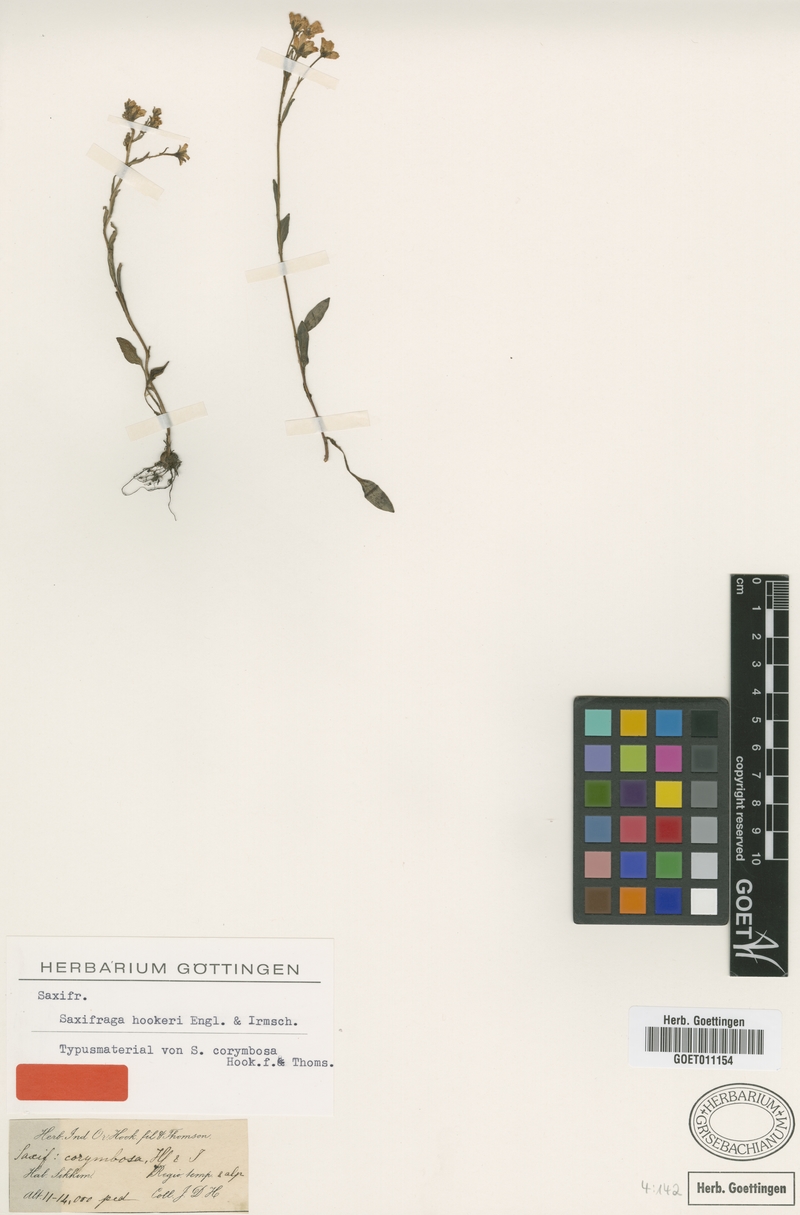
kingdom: Plantae
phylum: Tracheophyta
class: Magnoliopsida
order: Saxifragales
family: Saxifragaceae
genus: Saxifraga
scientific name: Saxifraga hookeri
